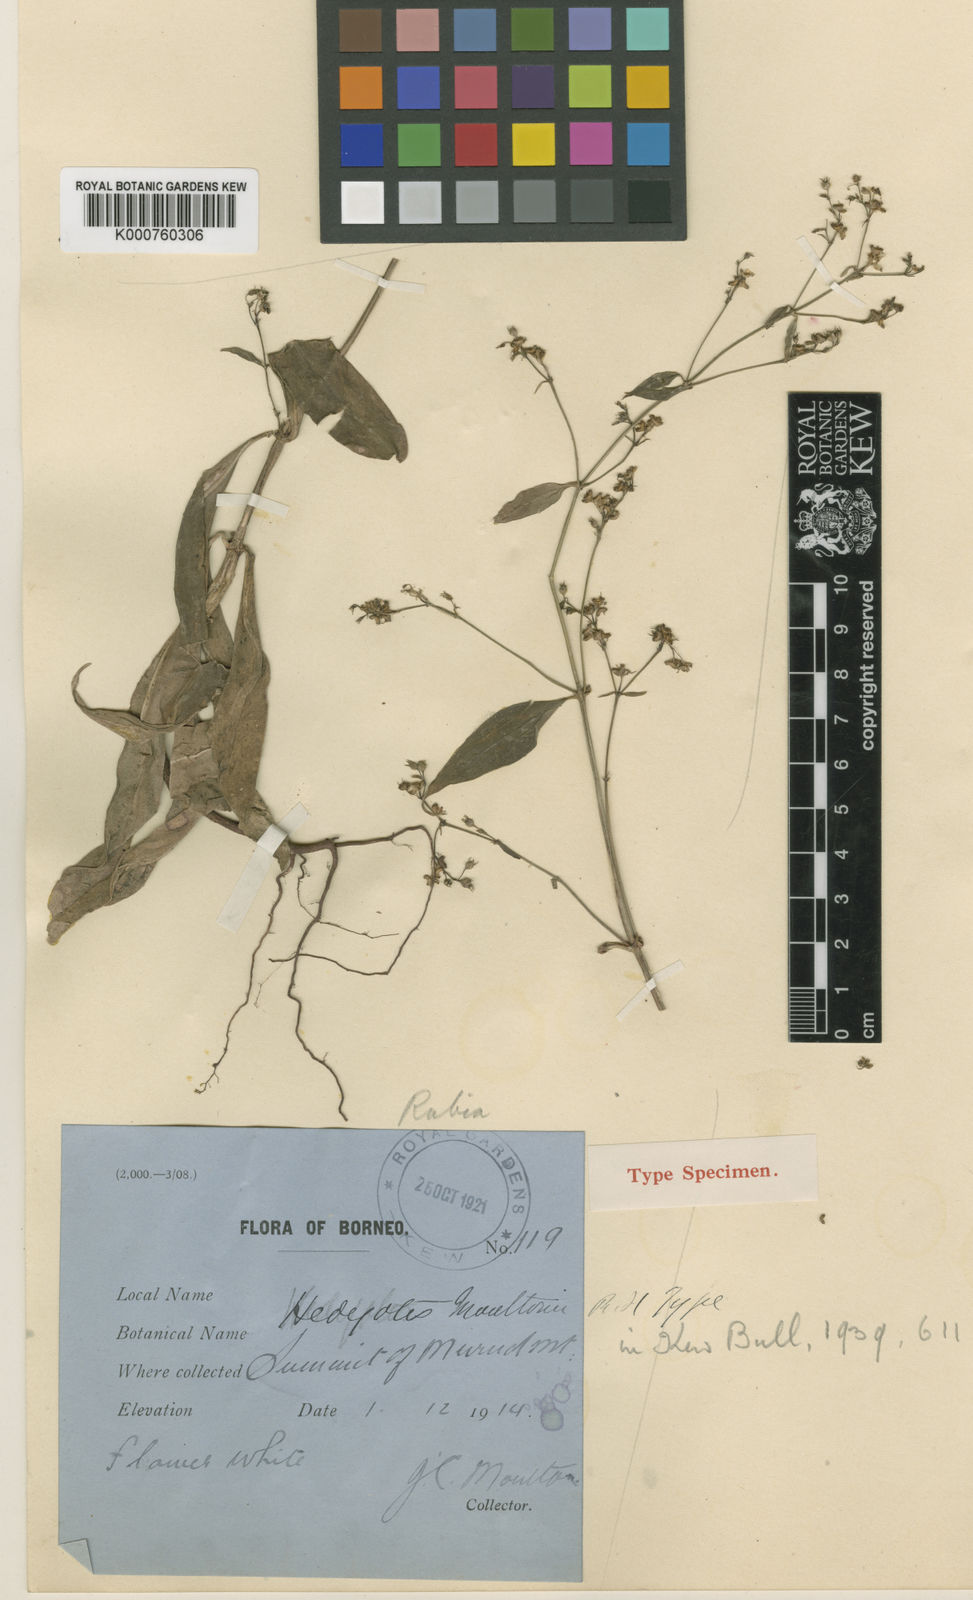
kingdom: Plantae
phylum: Tracheophyta
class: Magnoliopsida
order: Gentianales
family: Rubiaceae
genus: Hedyotis
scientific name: Hedyotis moultonii
